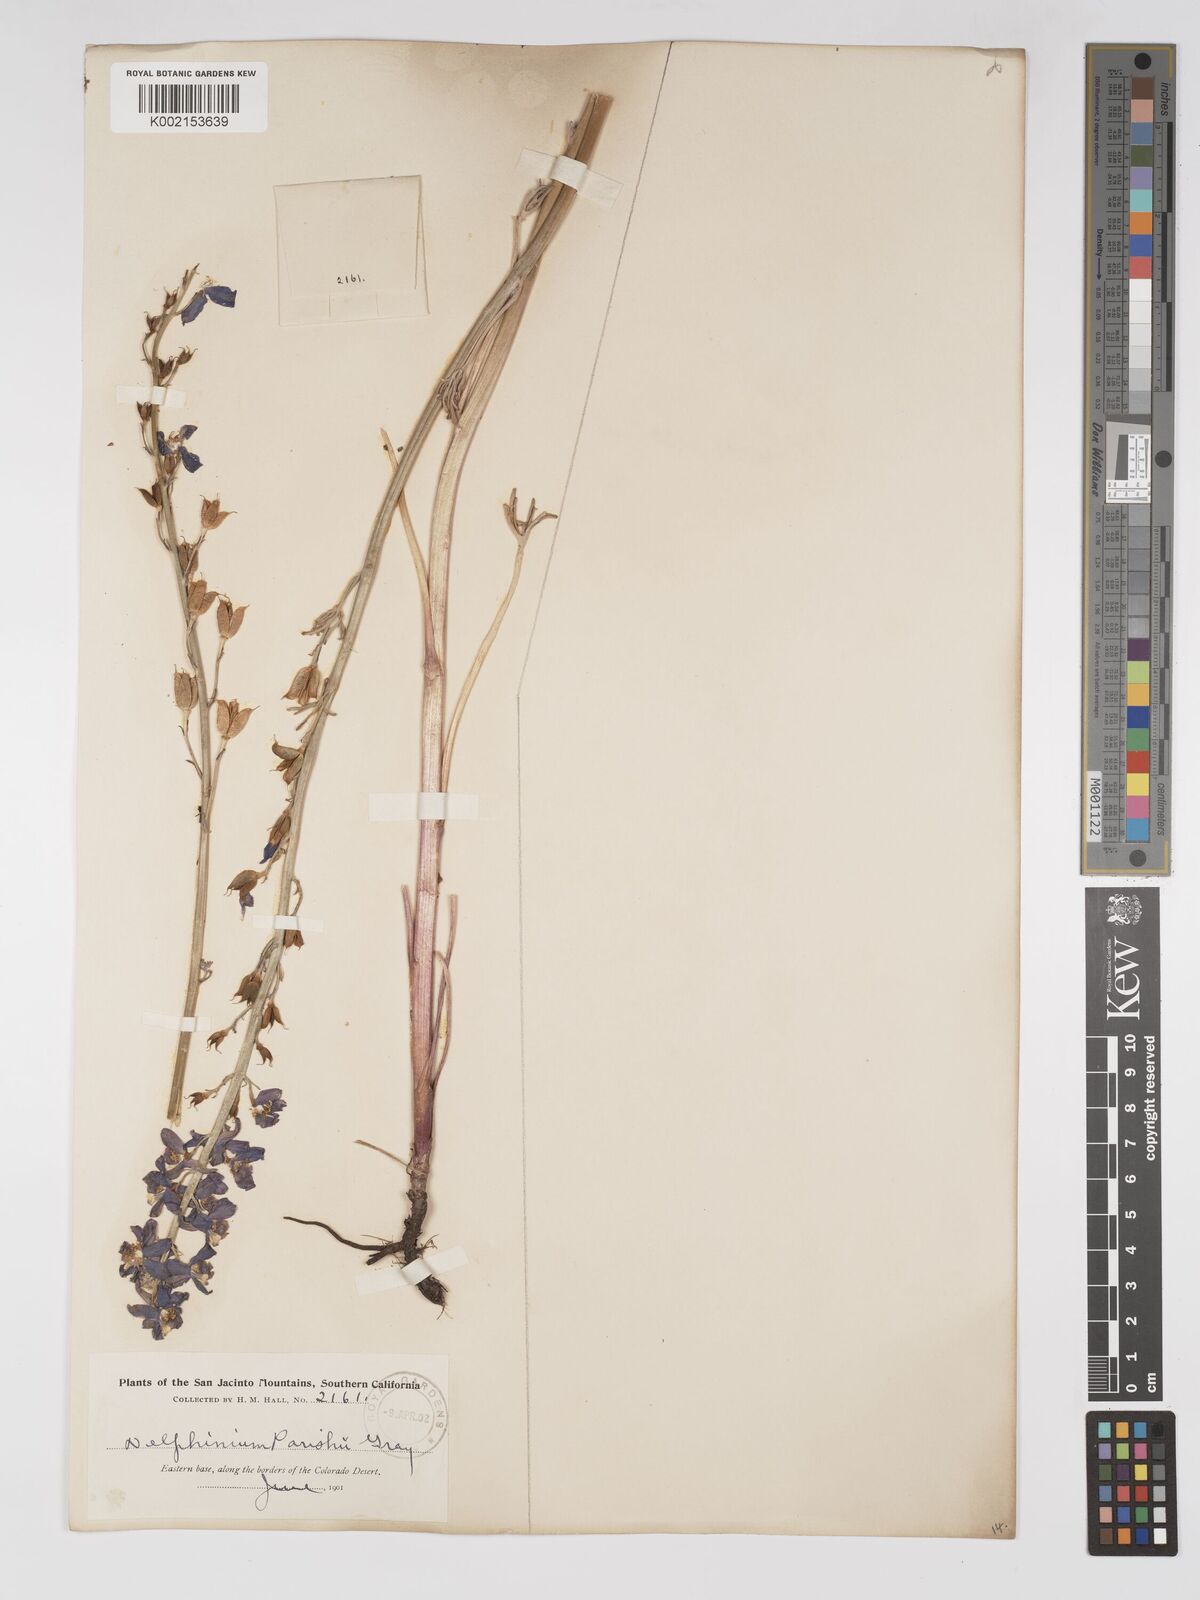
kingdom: Plantae
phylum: Tracheophyta
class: Magnoliopsida
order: Ranunculales
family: Ranunculaceae
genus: Delphinium
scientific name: Delphinium parishii
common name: Apache larkspur
